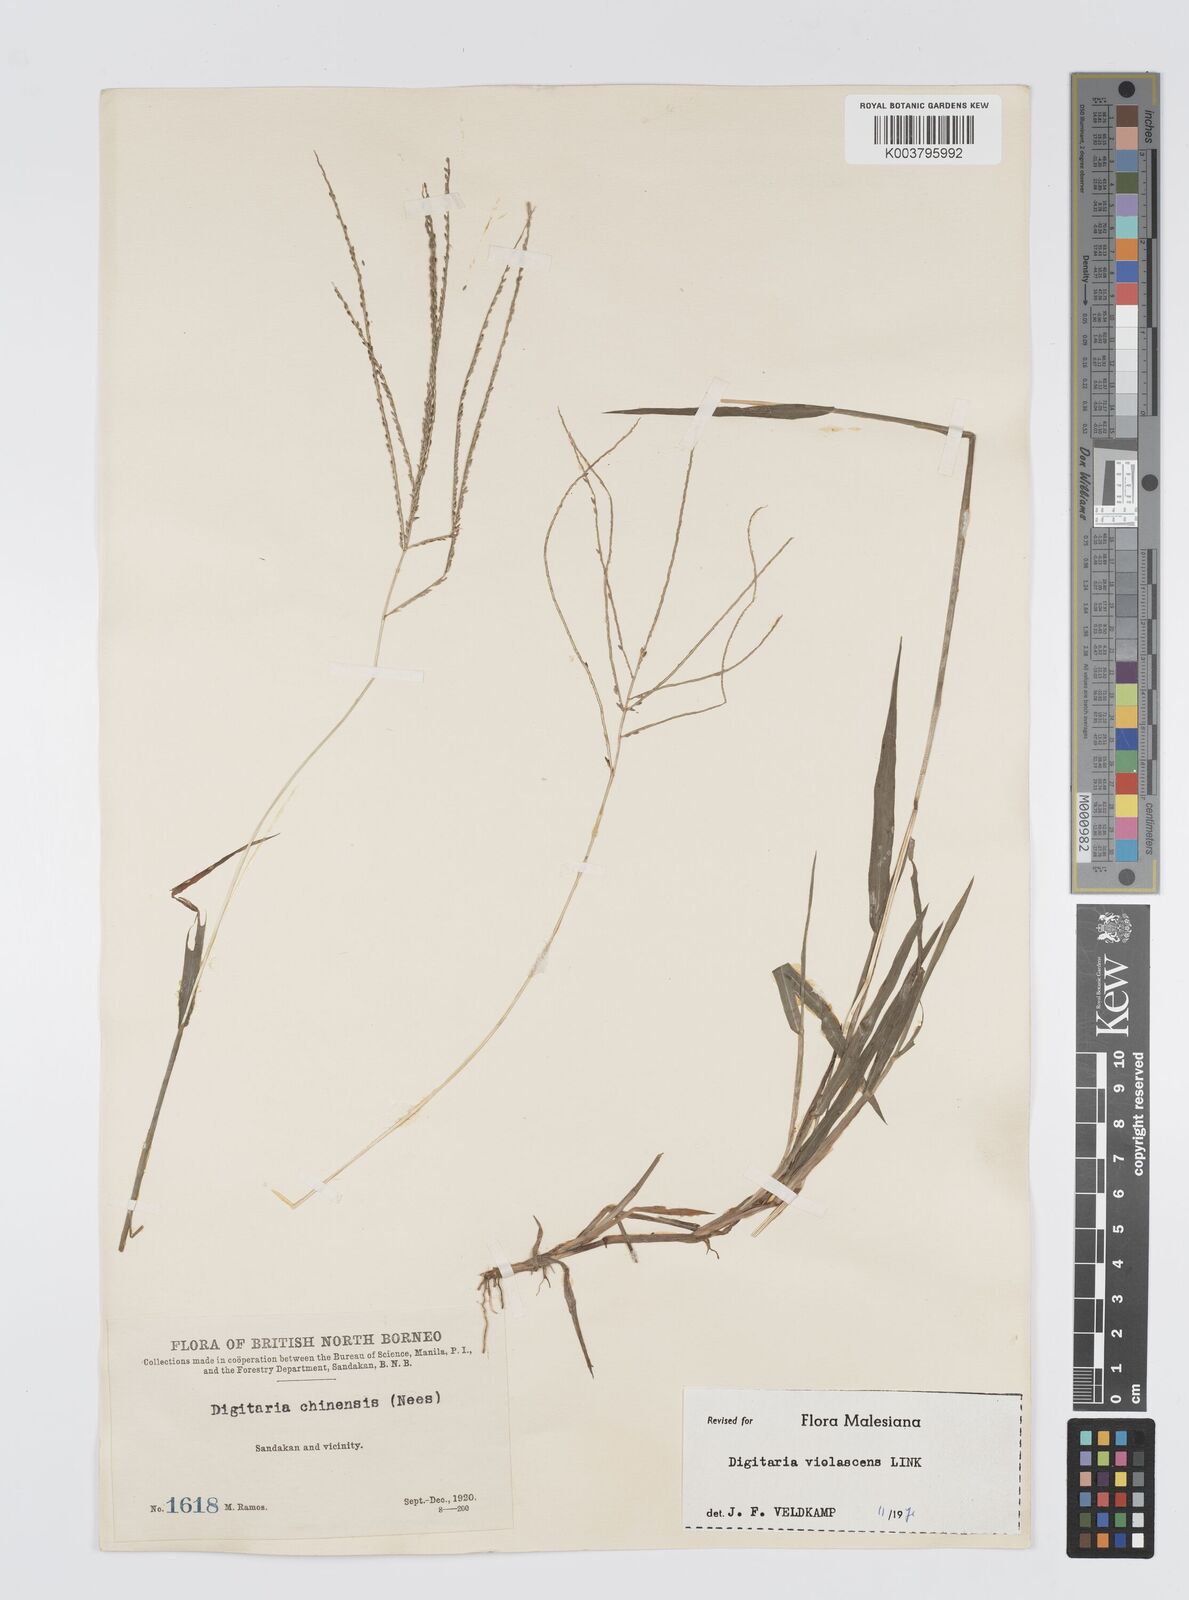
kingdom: Plantae
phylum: Tracheophyta
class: Liliopsida
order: Poales
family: Poaceae
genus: Digitaria
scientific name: Digitaria violascens
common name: Violet crabgrass
